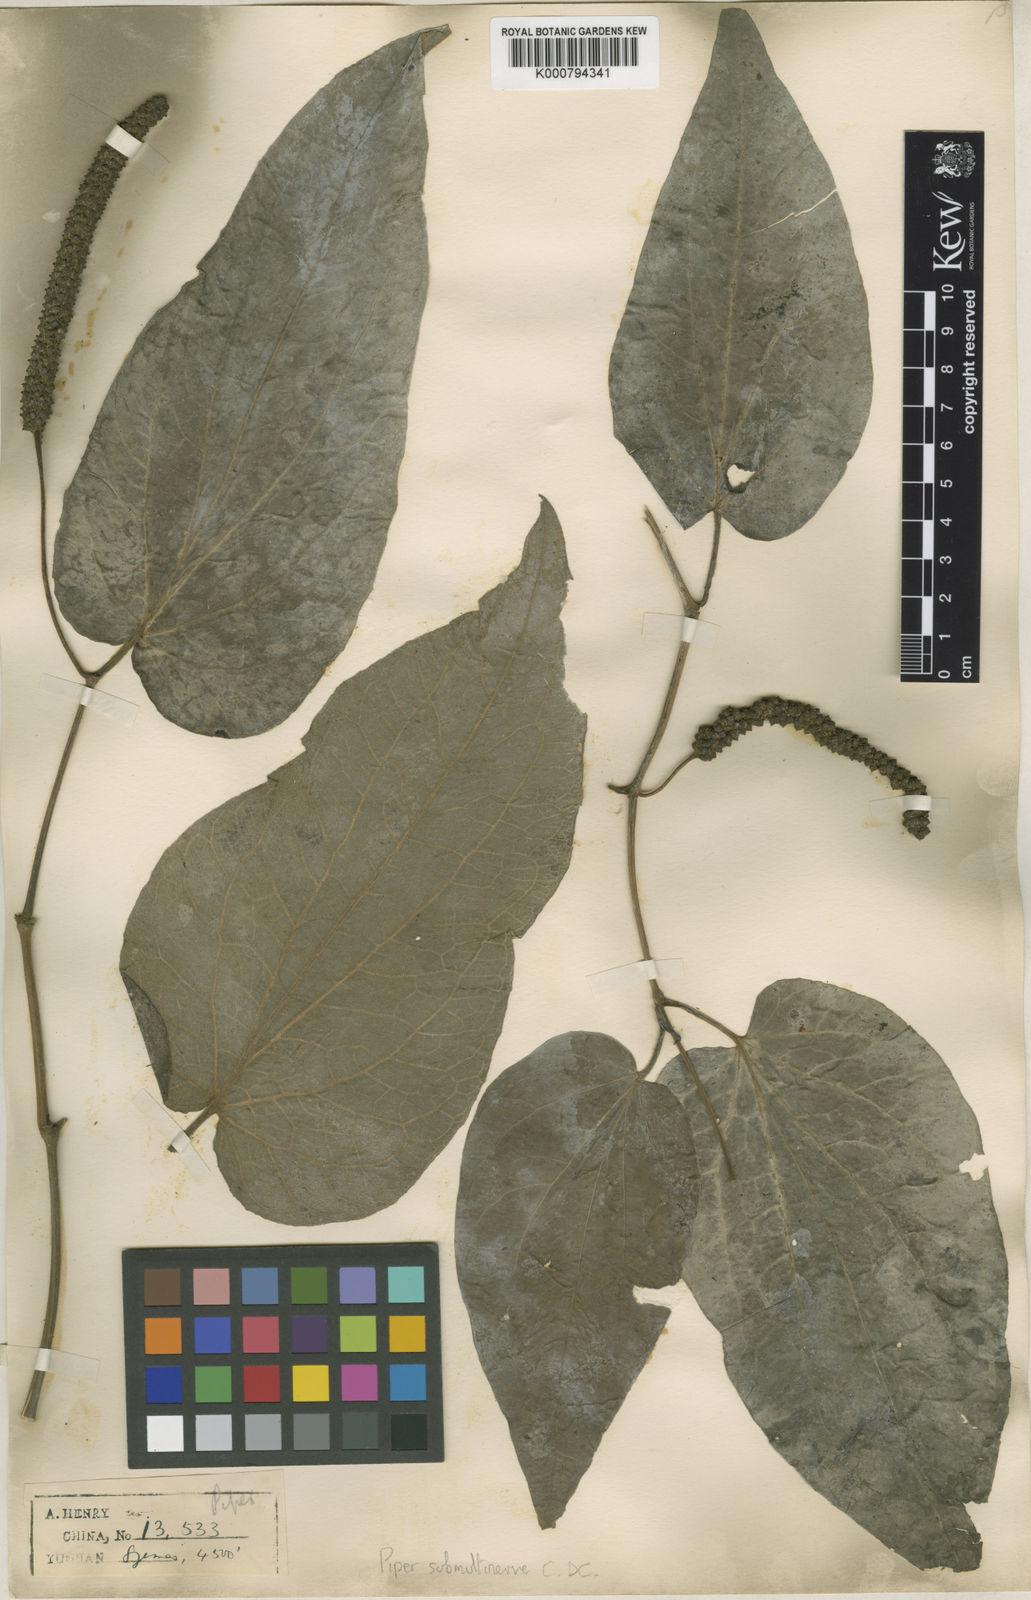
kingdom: Plantae
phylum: Tracheophyta
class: Magnoliopsida
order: Piperales
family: Piperaceae
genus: Piper
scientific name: Piper submultinerve
